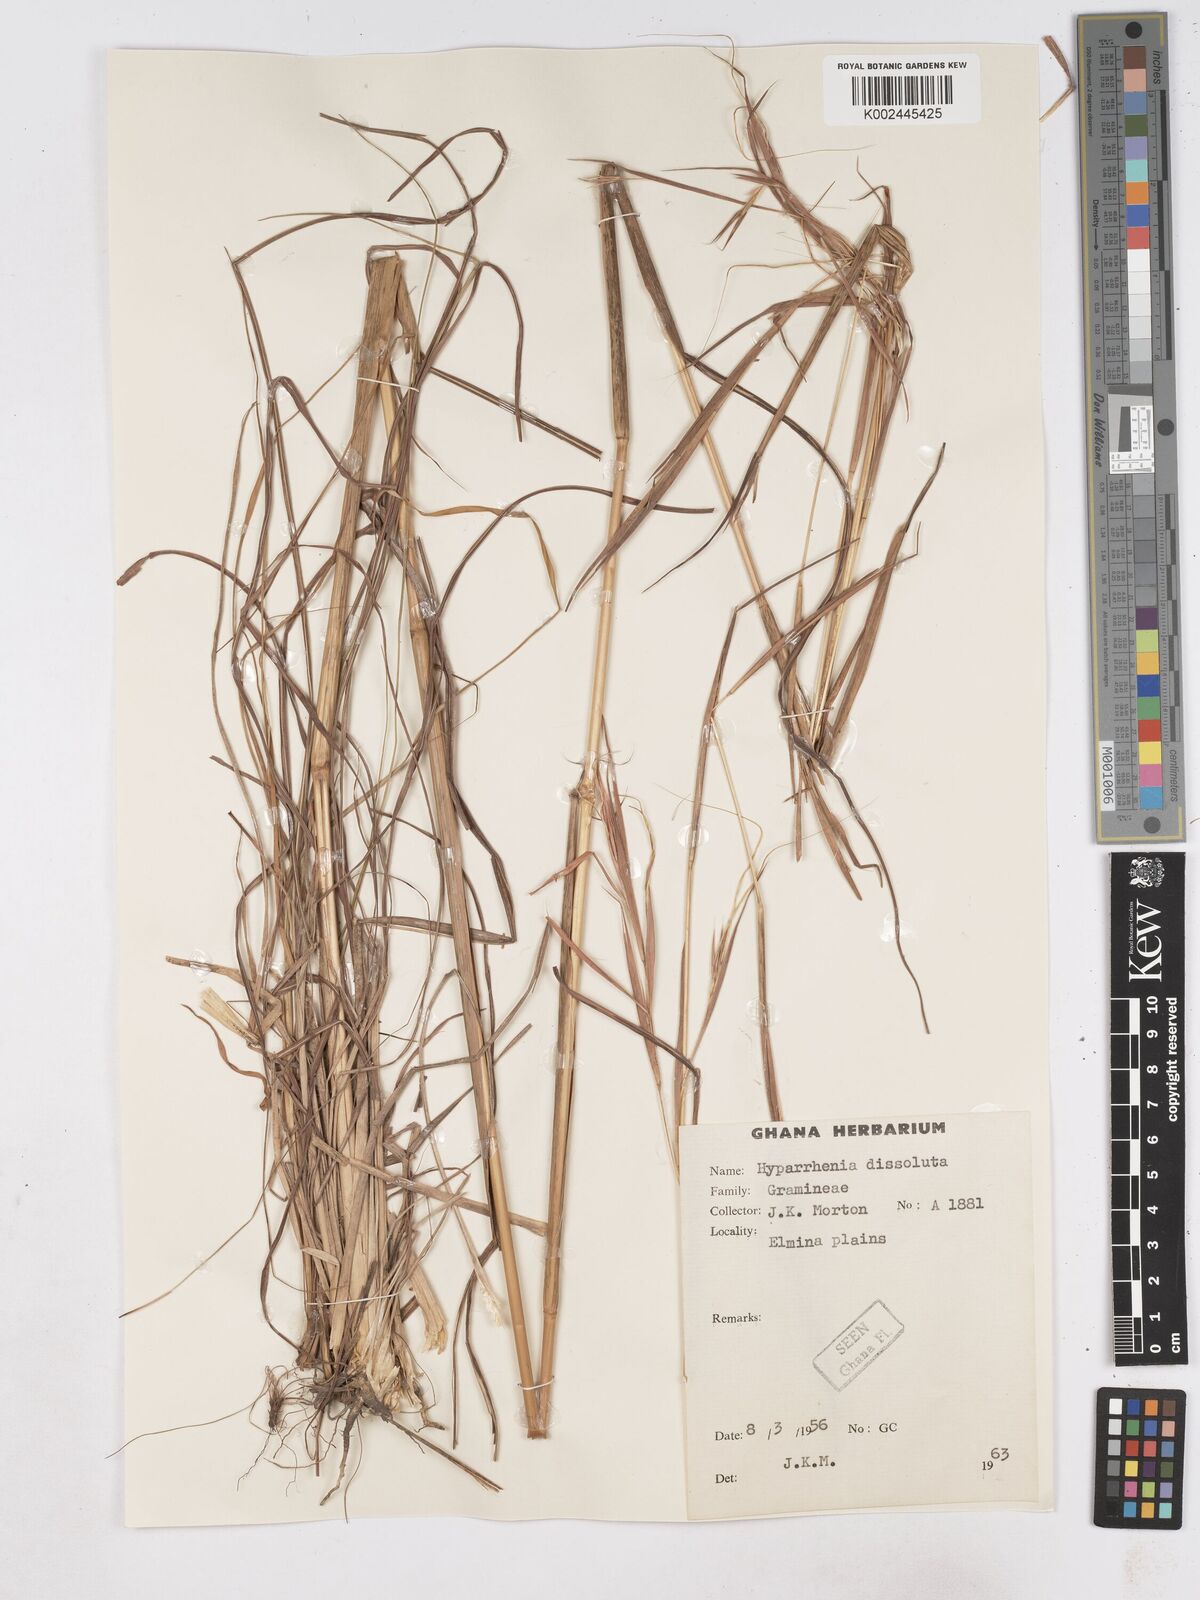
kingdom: Plantae
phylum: Tracheophyta
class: Liliopsida
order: Poales
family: Poaceae
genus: Hyperthelia
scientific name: Hyperthelia dissoluta
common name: Yellow thatching grass
